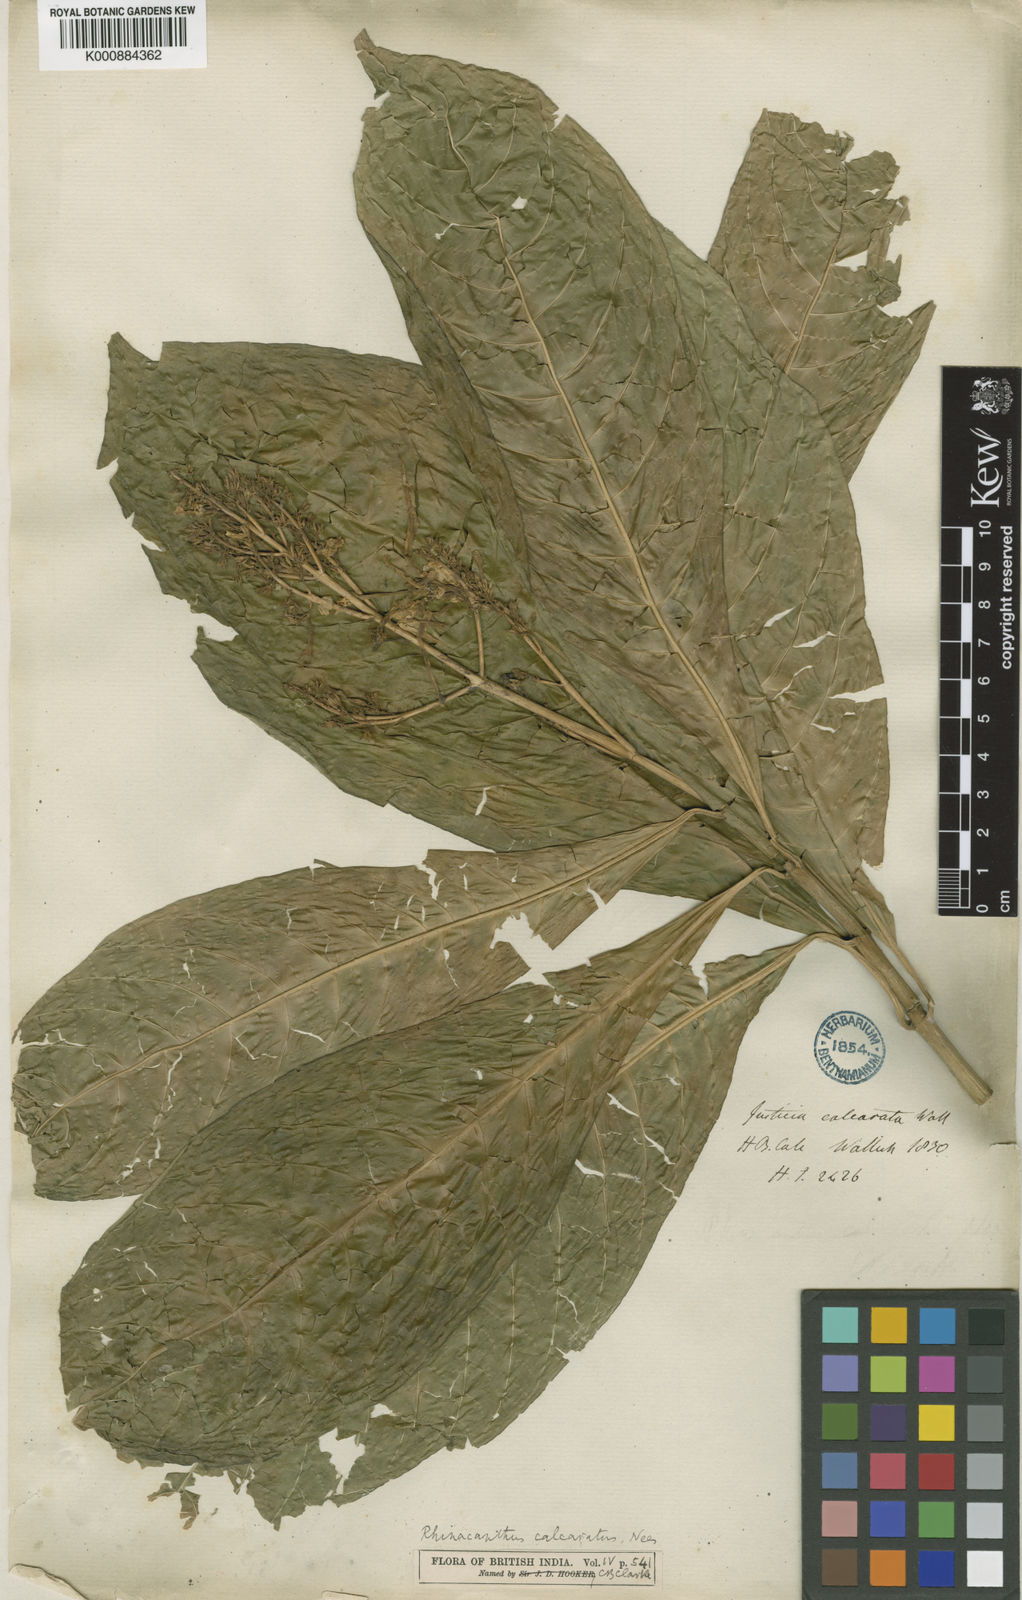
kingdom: Plantae
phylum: Tracheophyta
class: Magnoliopsida
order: Lamiales
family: Acanthaceae
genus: Rhinacanthus
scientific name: Rhinacanthus calcaratus
